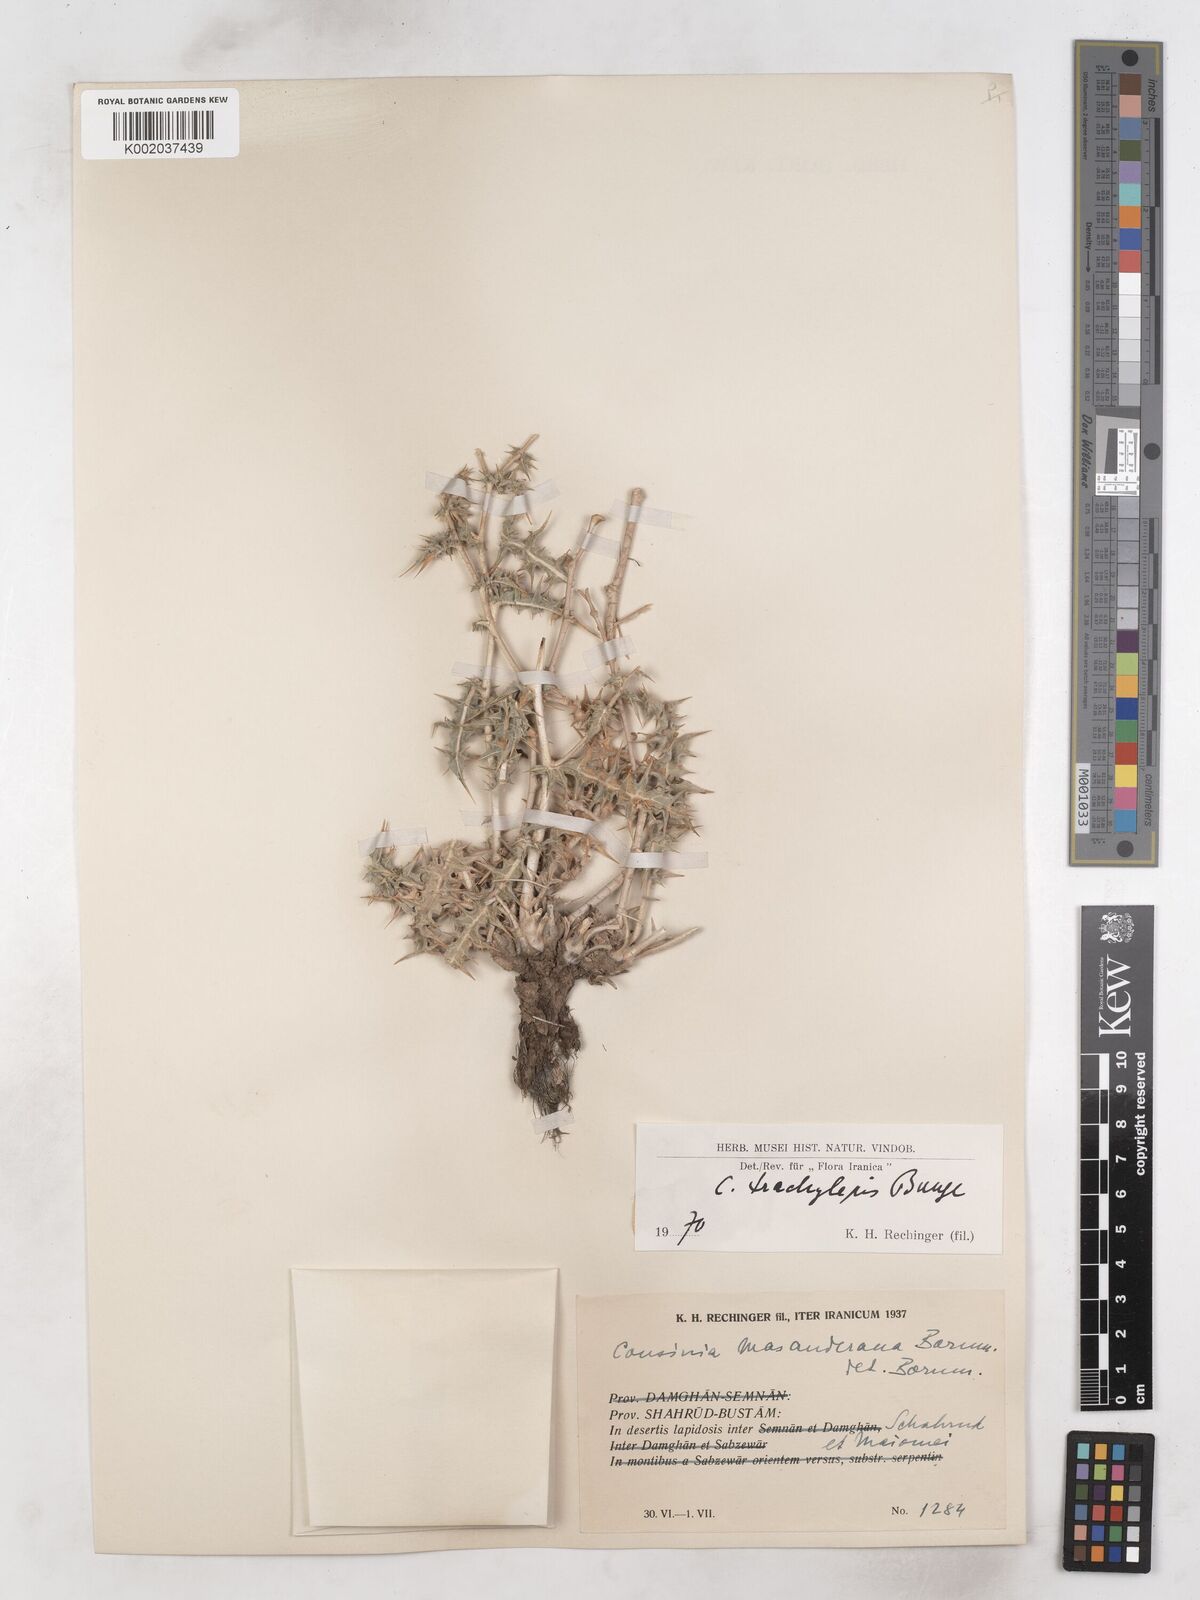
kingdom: Plantae
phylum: Tracheophyta
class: Magnoliopsida
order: Asterales
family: Asteraceae
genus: Cousinia
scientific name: Cousinia trachylepis
